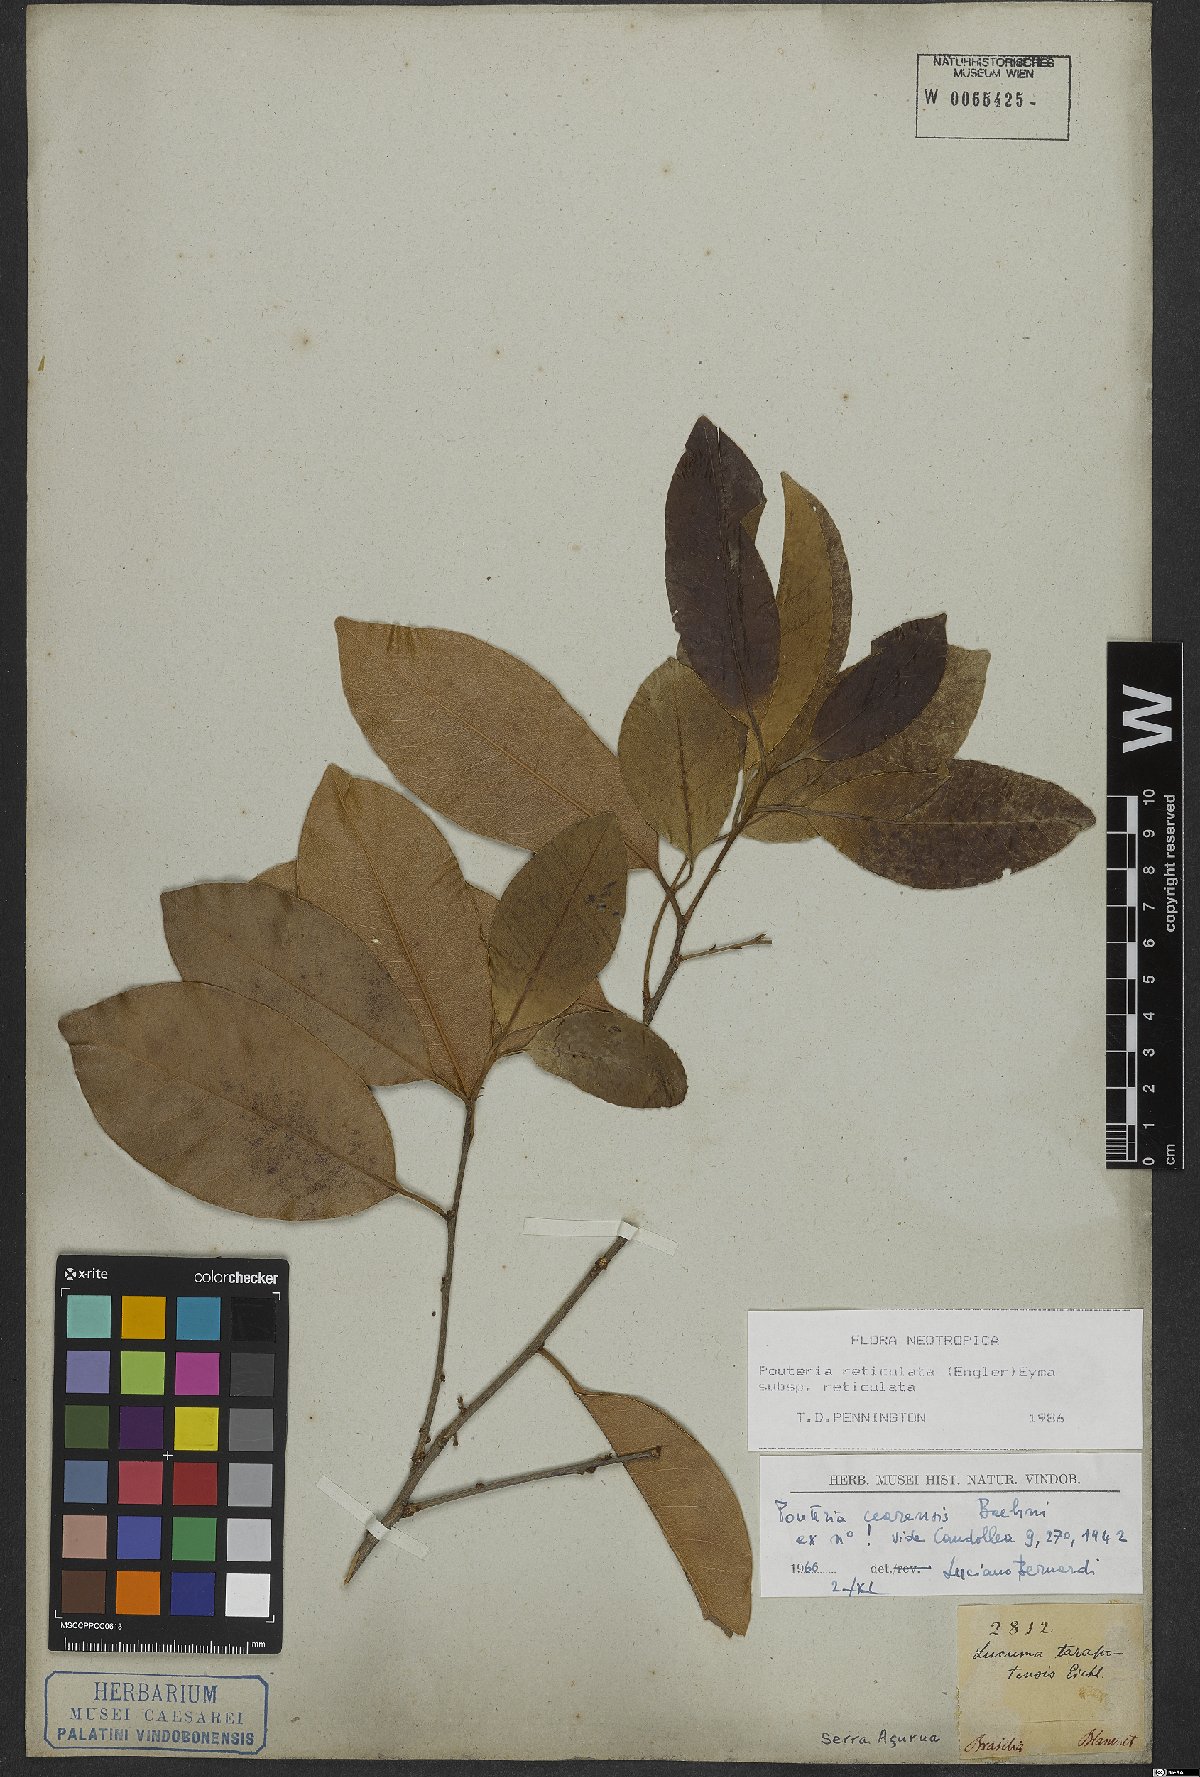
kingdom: Plantae
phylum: Tracheophyta
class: Magnoliopsida
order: Ericales
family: Sapotaceae
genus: Pouteria
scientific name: Pouteria reticulata
